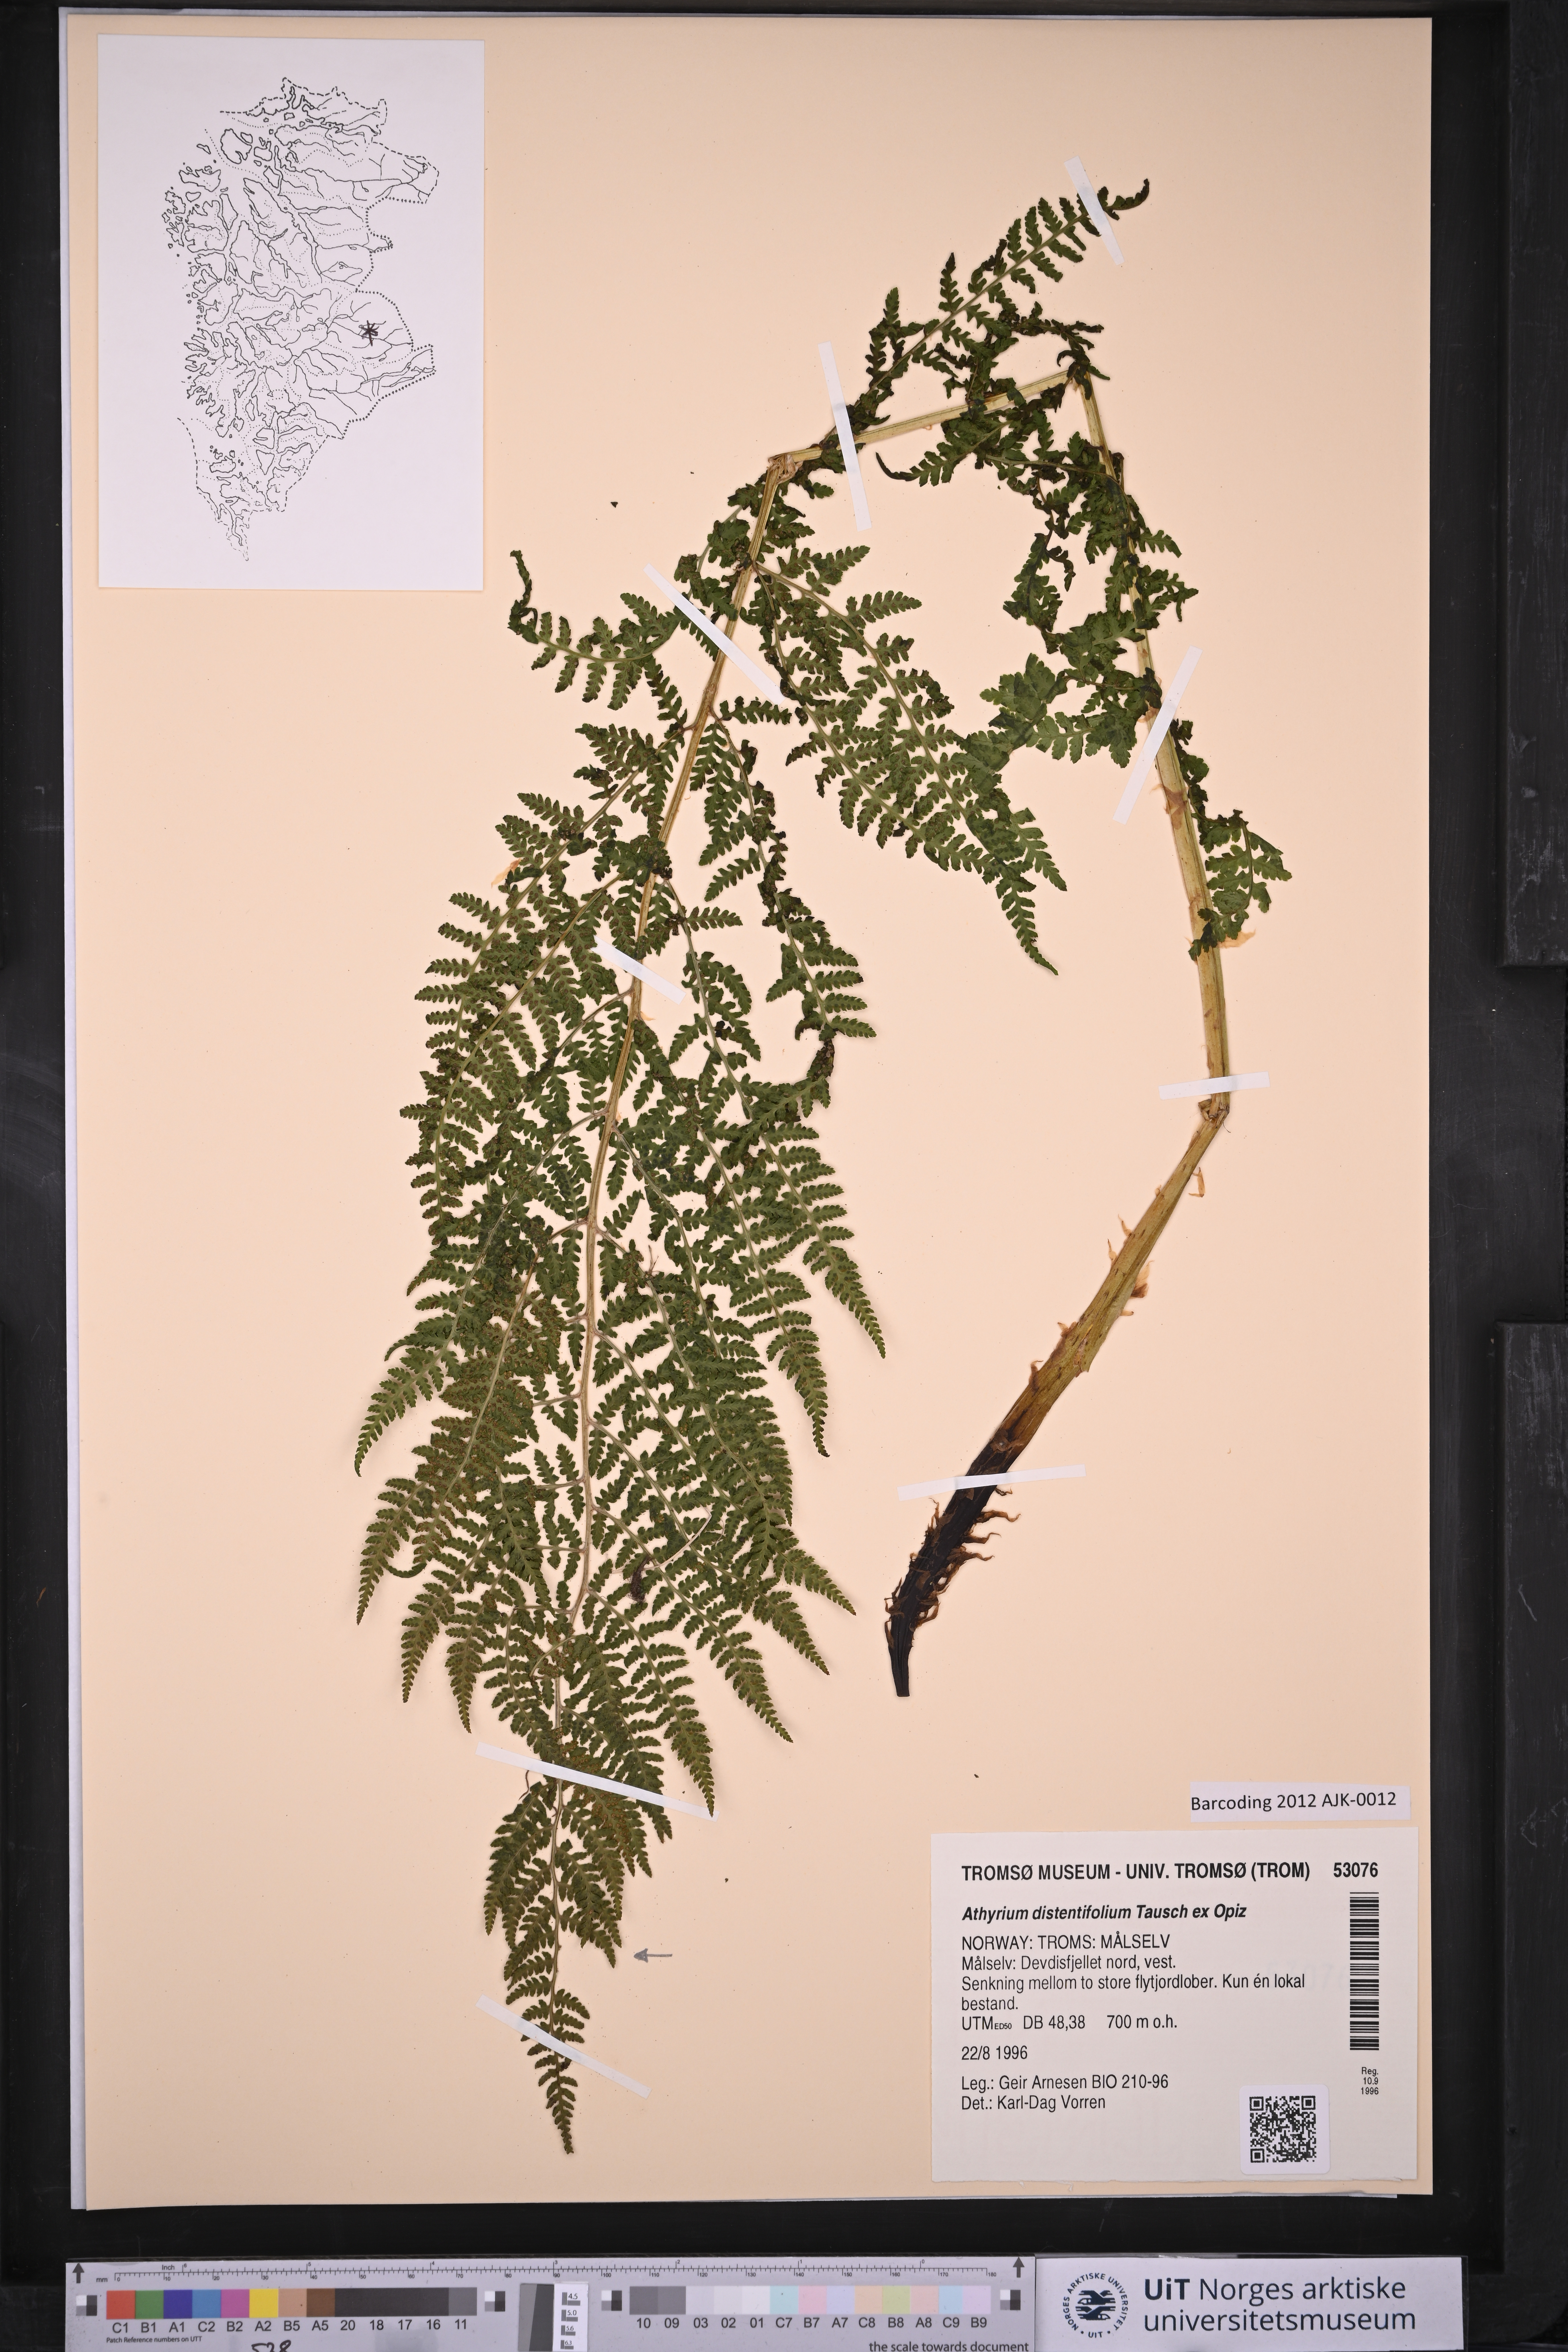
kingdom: Plantae
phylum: Tracheophyta
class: Polypodiopsida
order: Polypodiales
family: Athyriaceae
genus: Pseudathyrium
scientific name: Pseudathyrium alpestre
